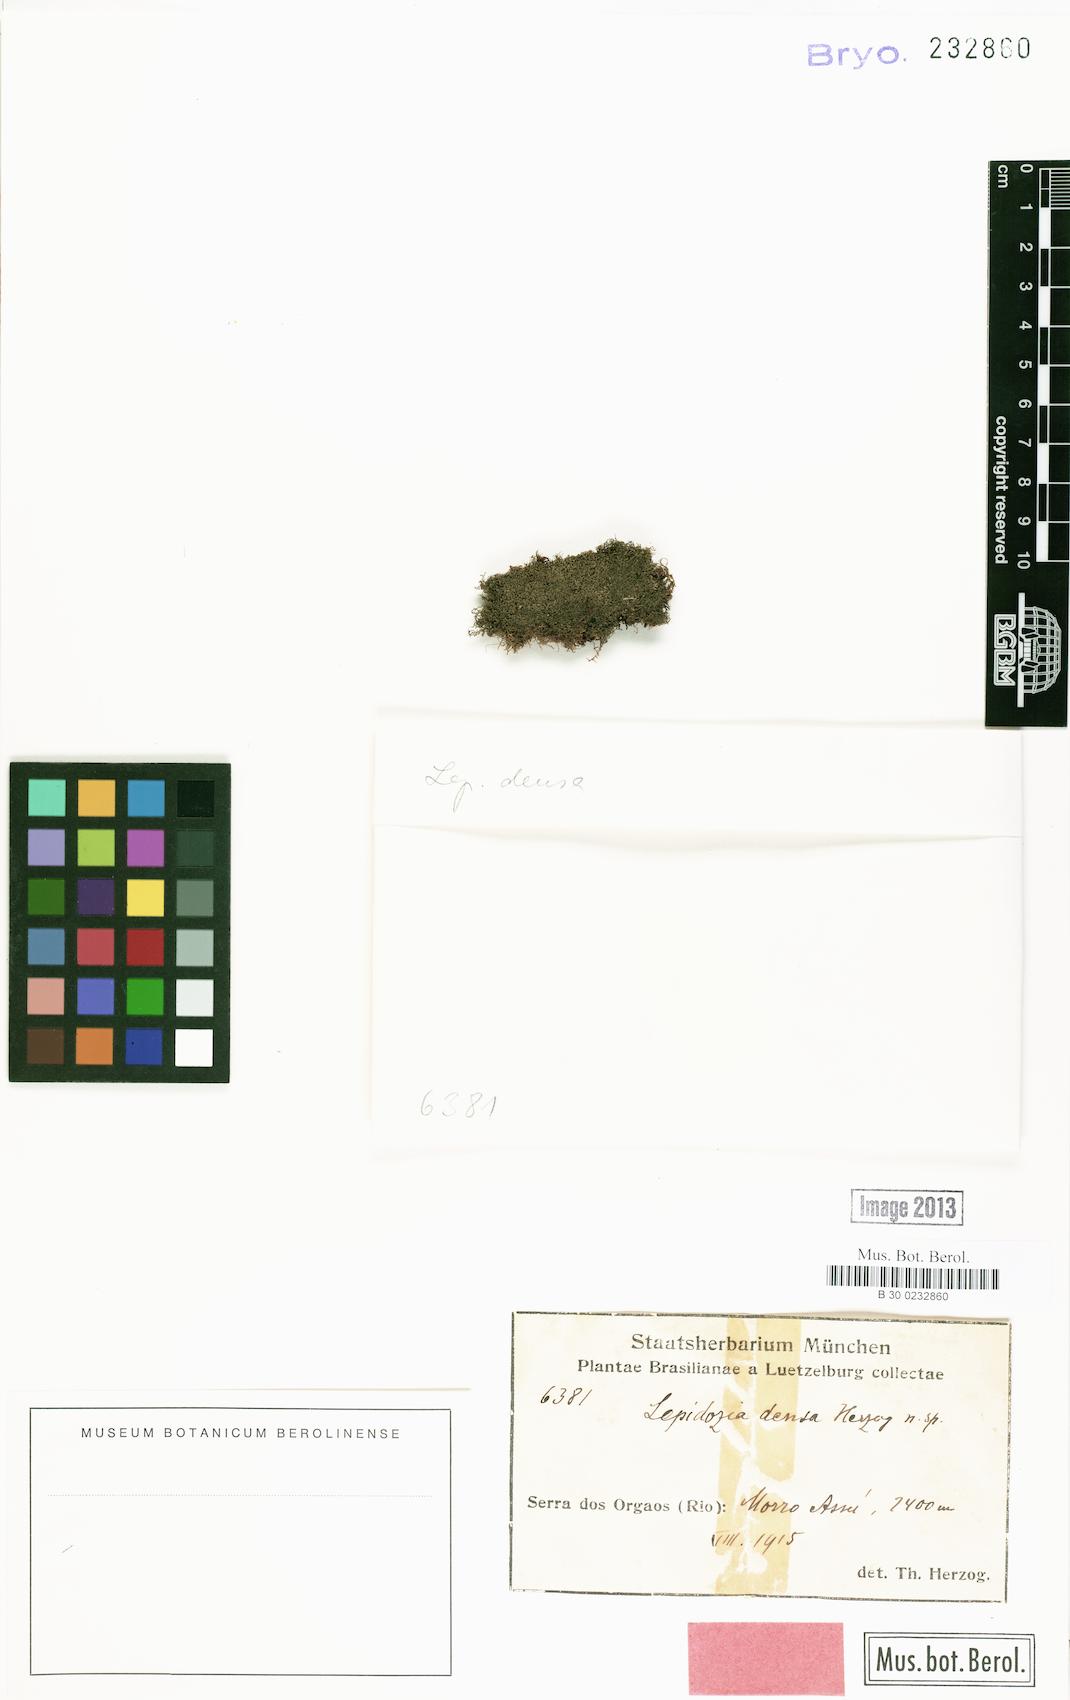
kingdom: Plantae
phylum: Marchantiophyta
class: Jungermanniopsida
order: Jungermanniales
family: Lepidoziaceae
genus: Lepidozia
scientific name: Lepidozia densa
